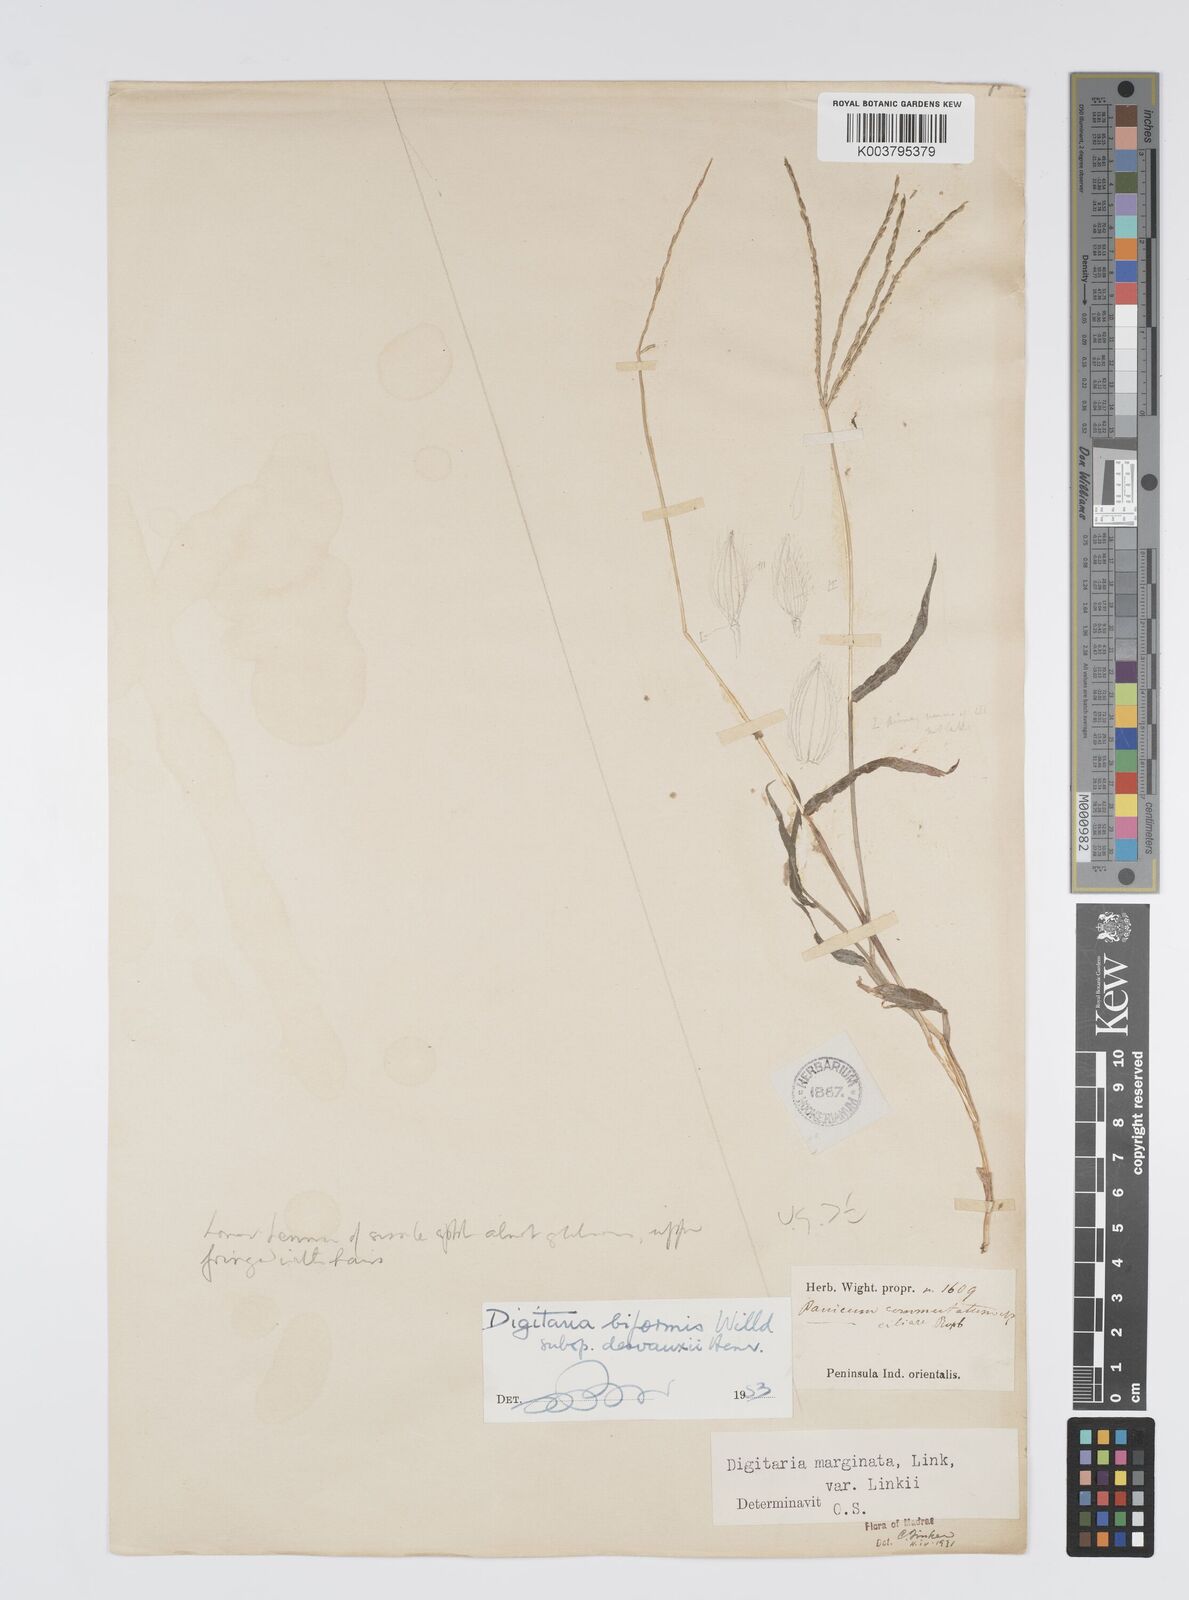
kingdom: Plantae
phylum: Tracheophyta
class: Liliopsida
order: Poales
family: Poaceae
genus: Digitaria
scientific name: Digitaria ciliaris
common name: Tropical finger-grass
